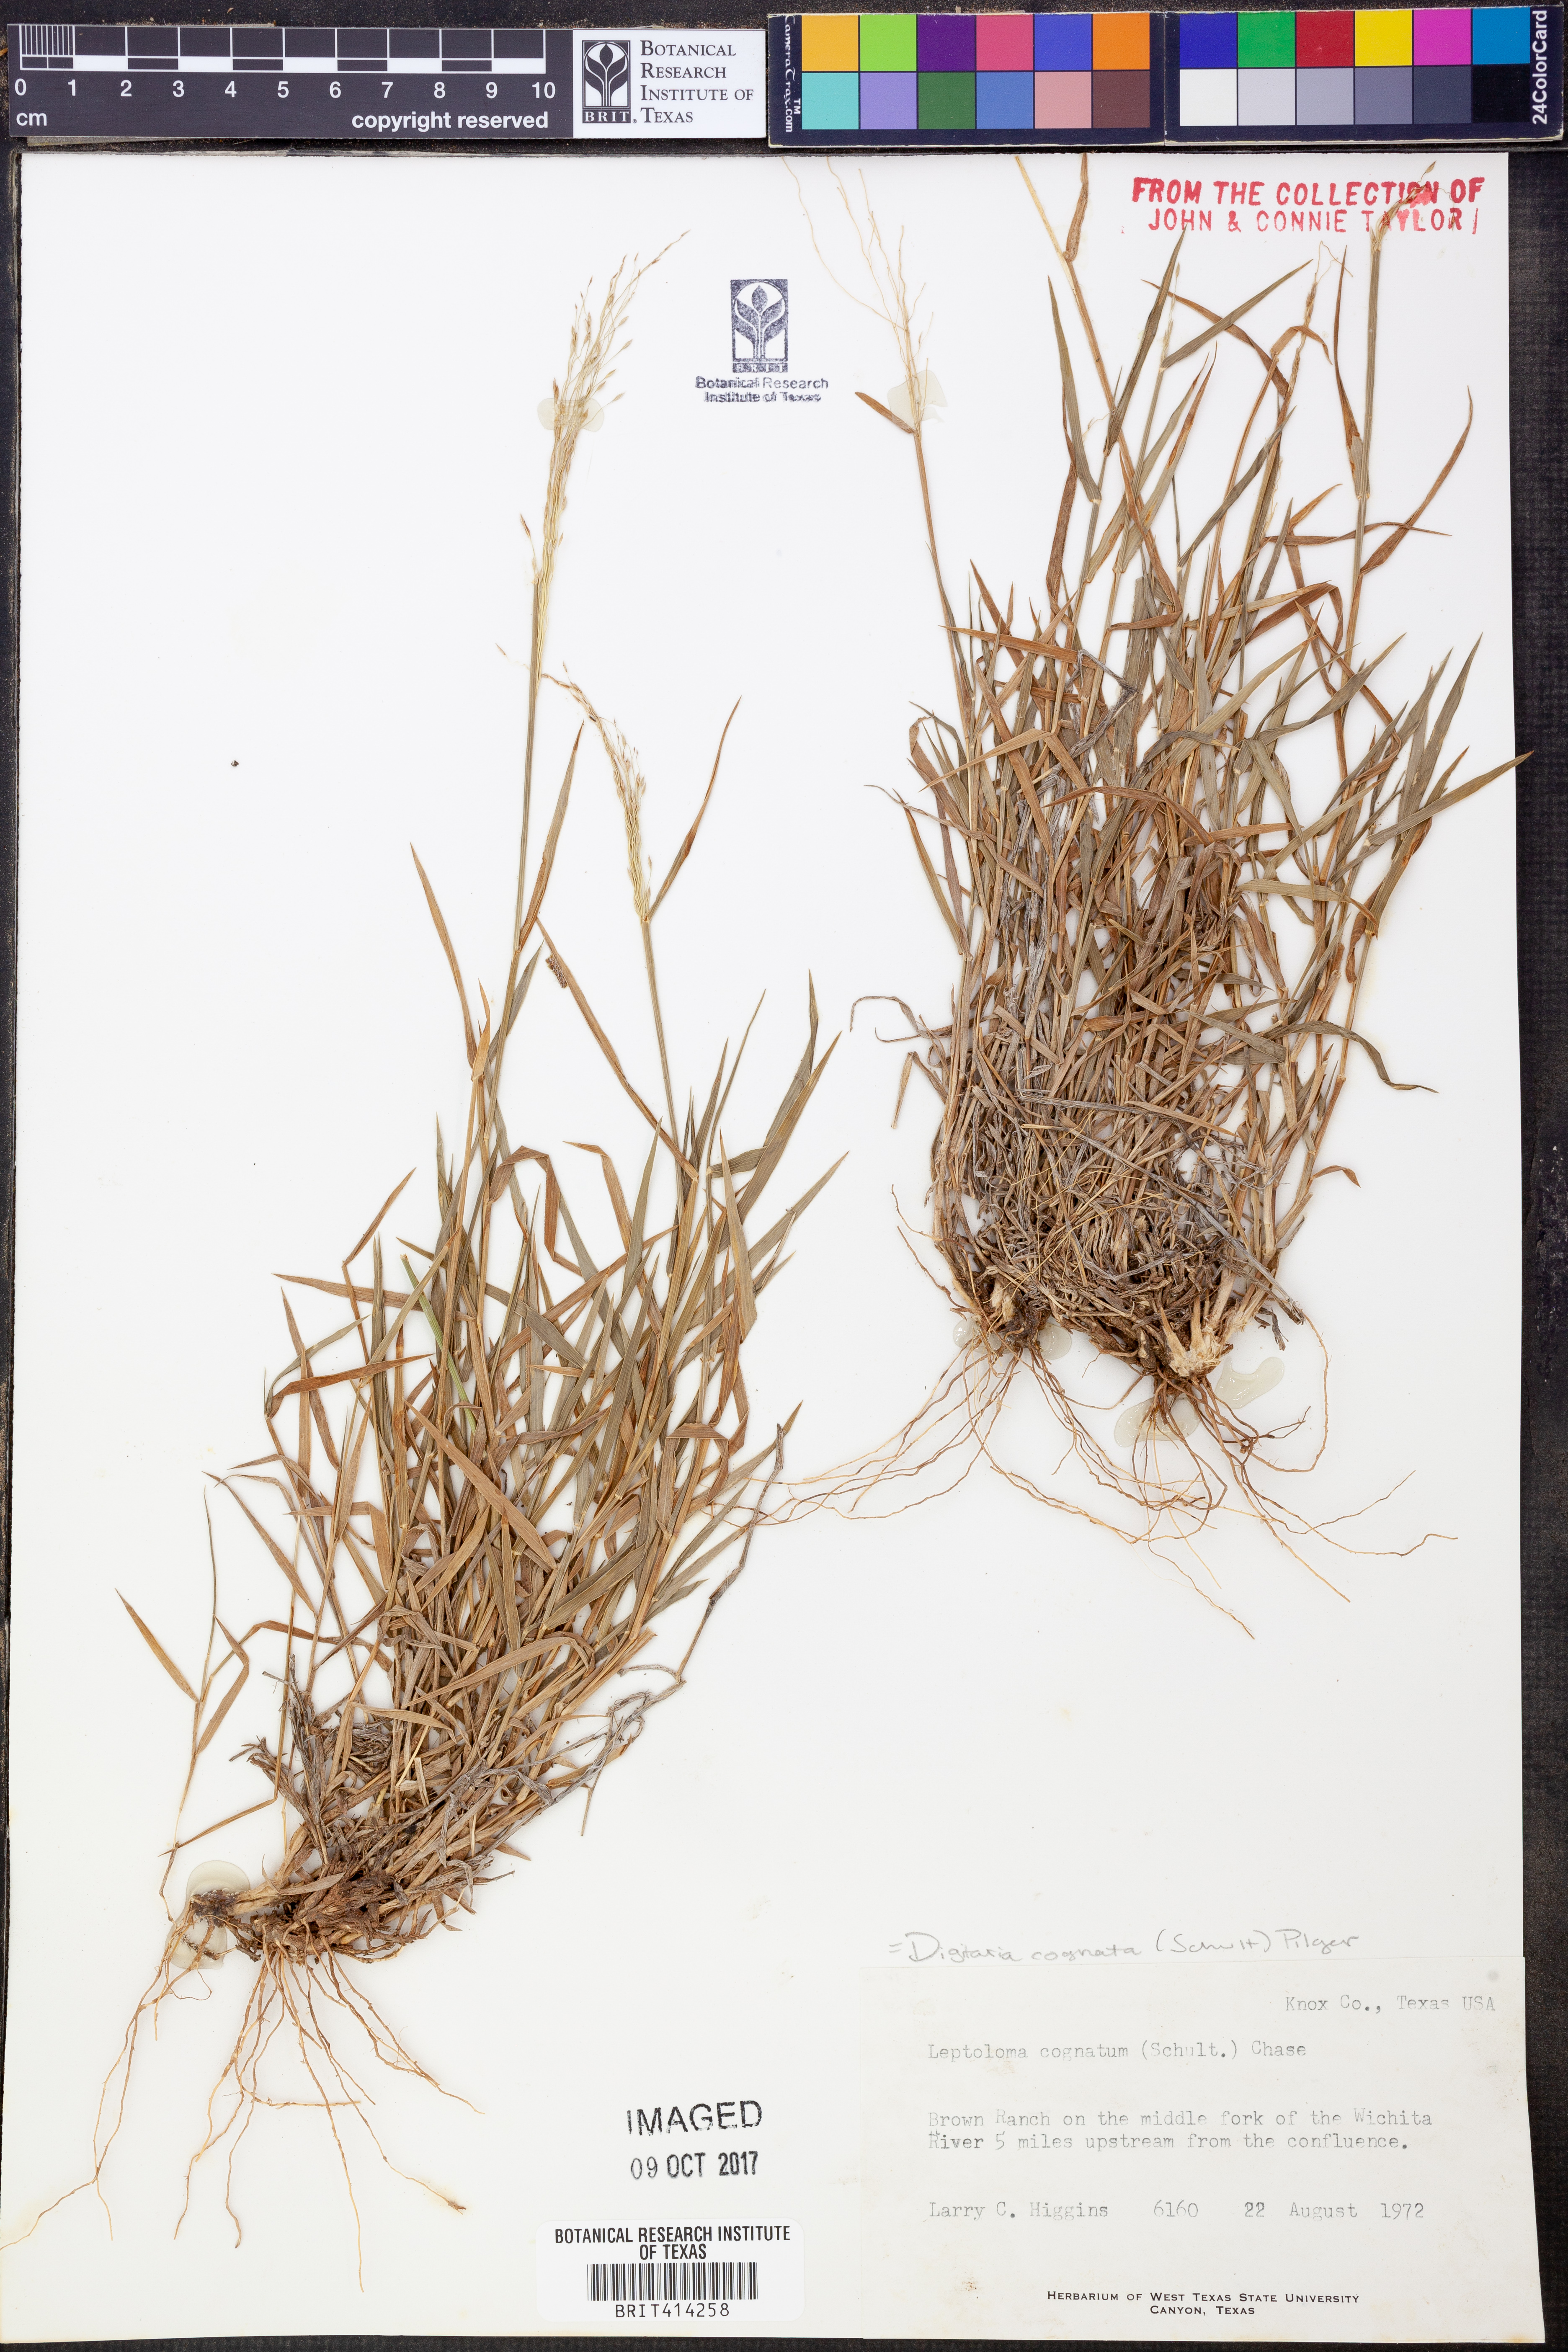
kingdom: Plantae
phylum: Tracheophyta
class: Liliopsida
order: Poales
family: Poaceae
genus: Digitaria
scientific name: Digitaria cognata
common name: Fall witchgrass
